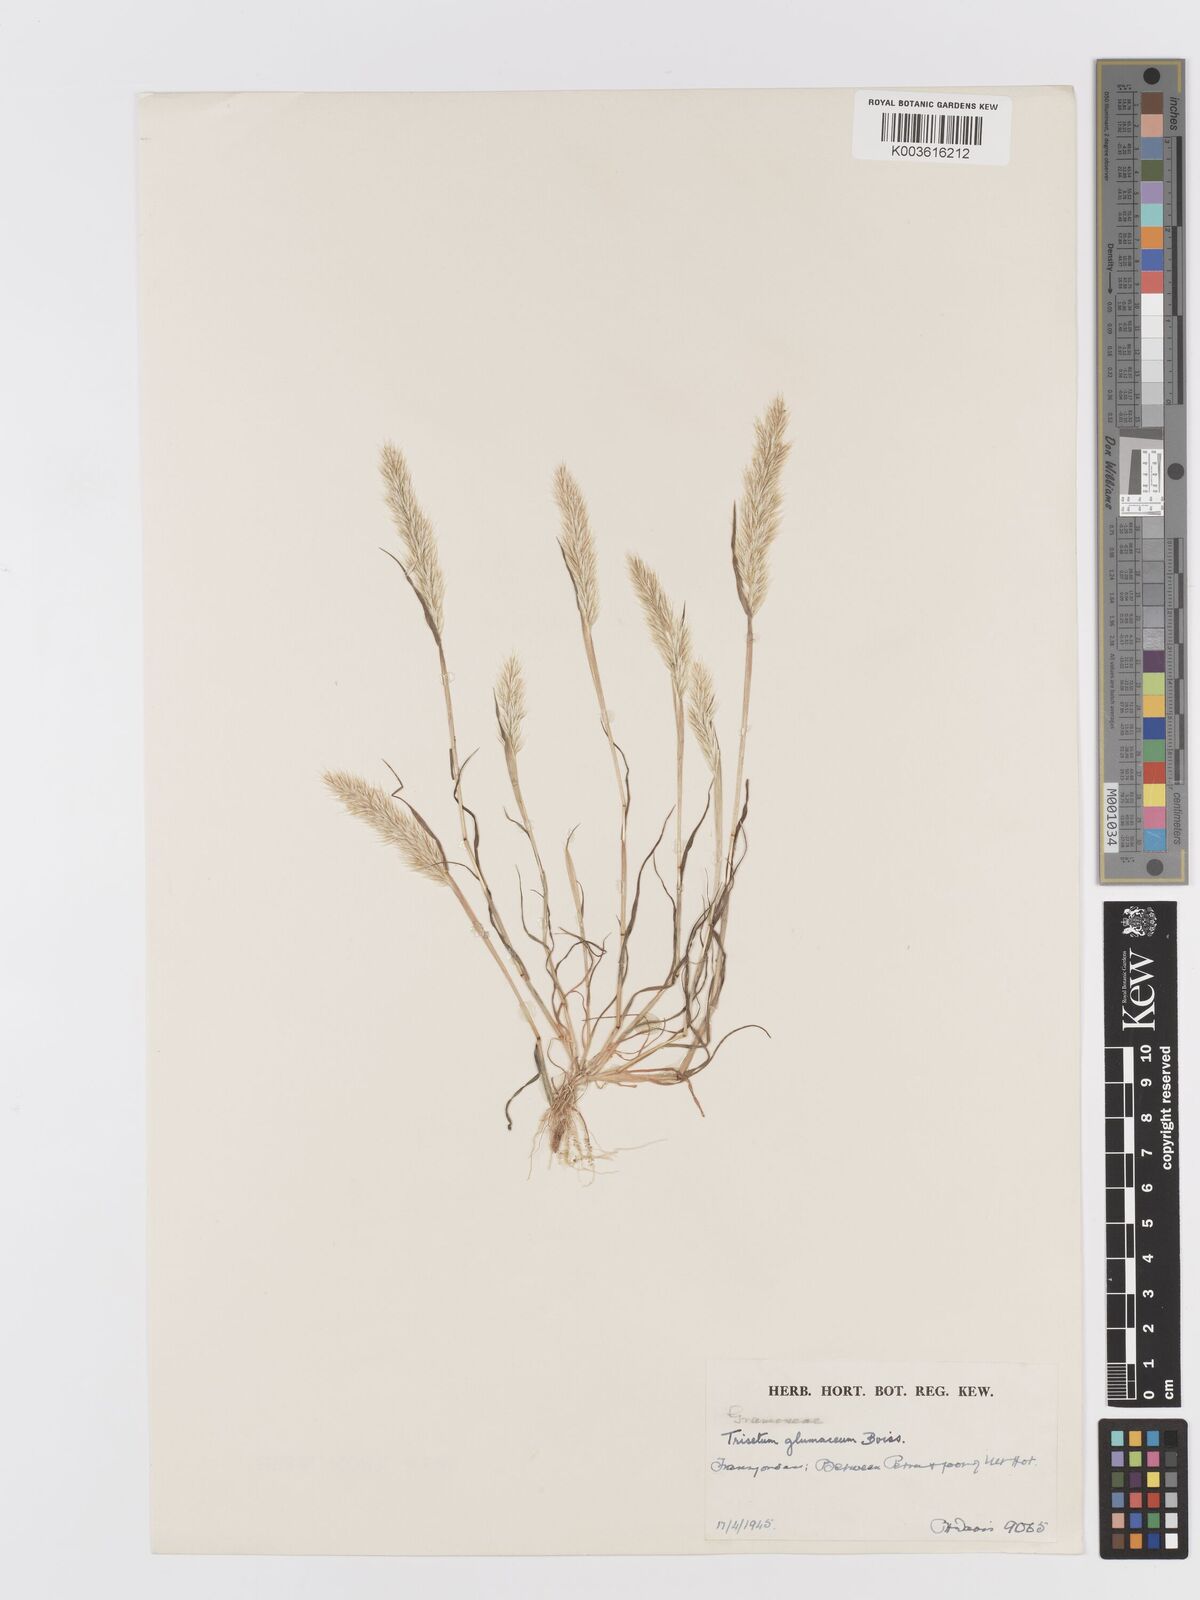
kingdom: Plantae
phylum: Tracheophyta
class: Liliopsida
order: Poales
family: Poaceae
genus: Trisetaria
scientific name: Trisetaria glumacea
